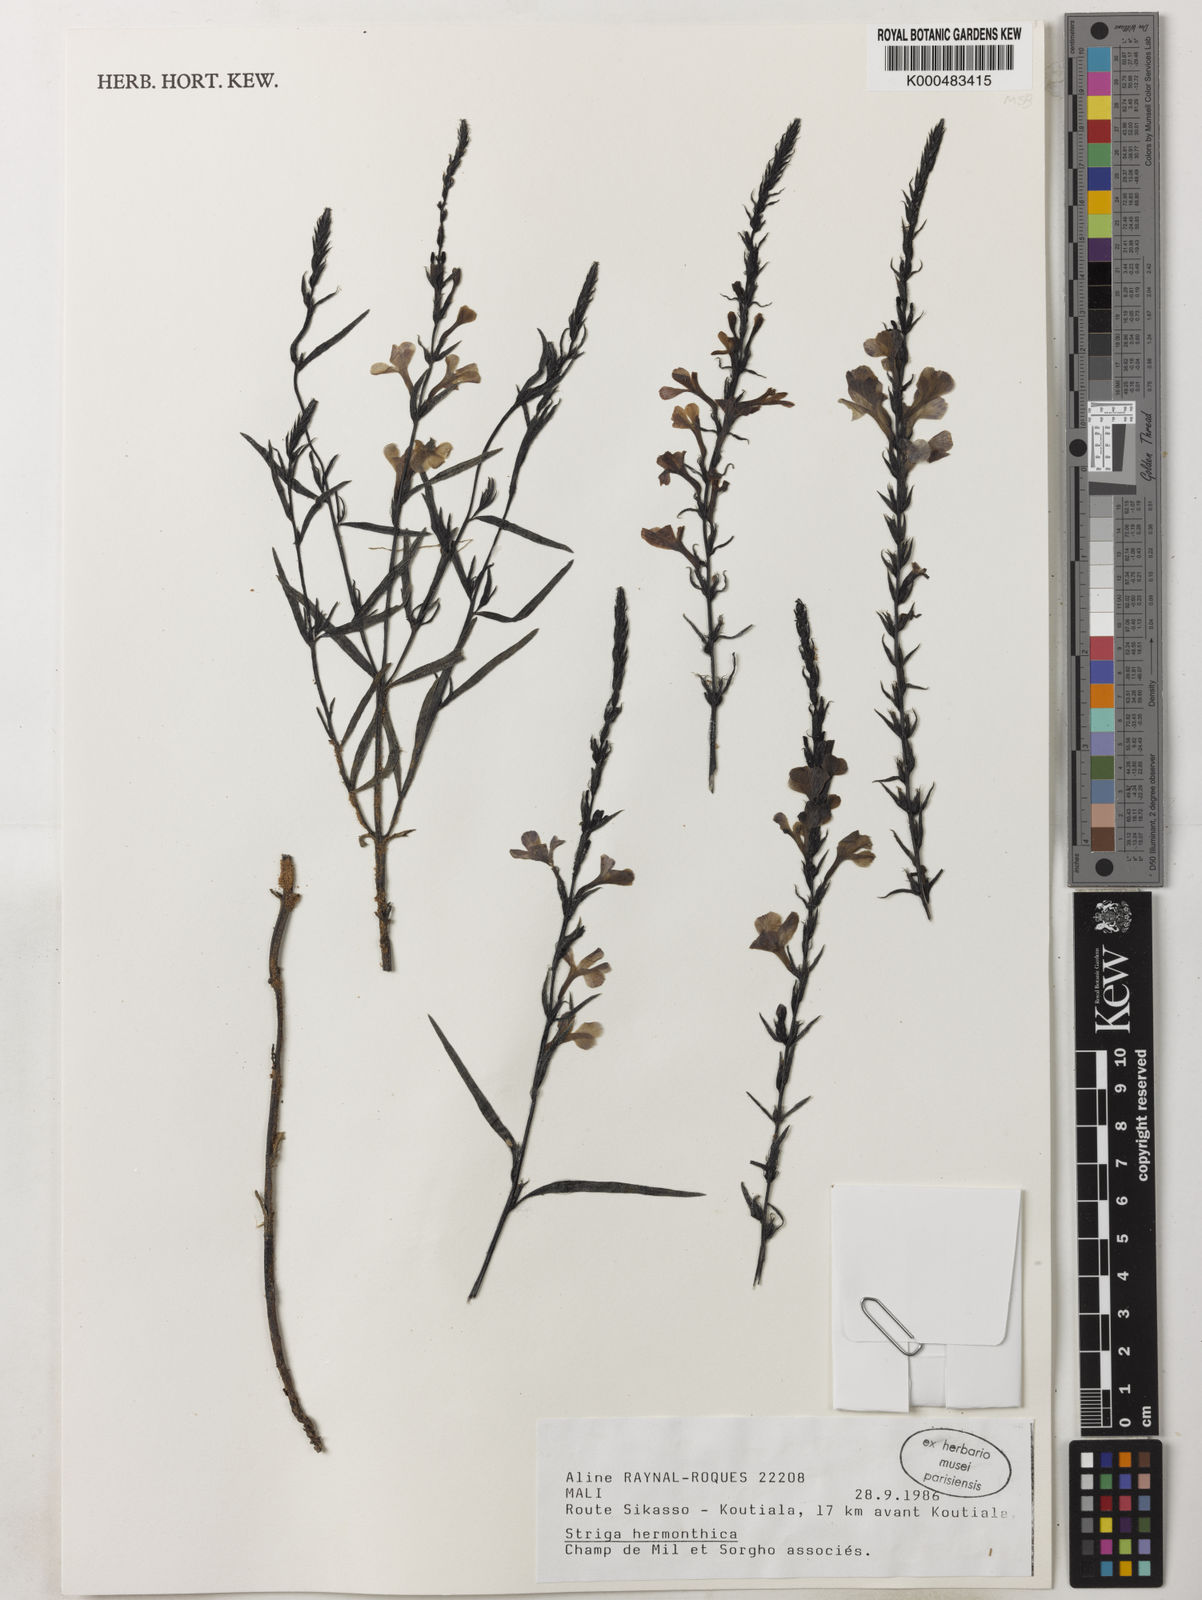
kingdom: Plantae
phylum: Tracheophyta
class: Magnoliopsida
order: Lamiales
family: Orobanchaceae
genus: Striga
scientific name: Striga hermonthica
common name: Purple witchweed
